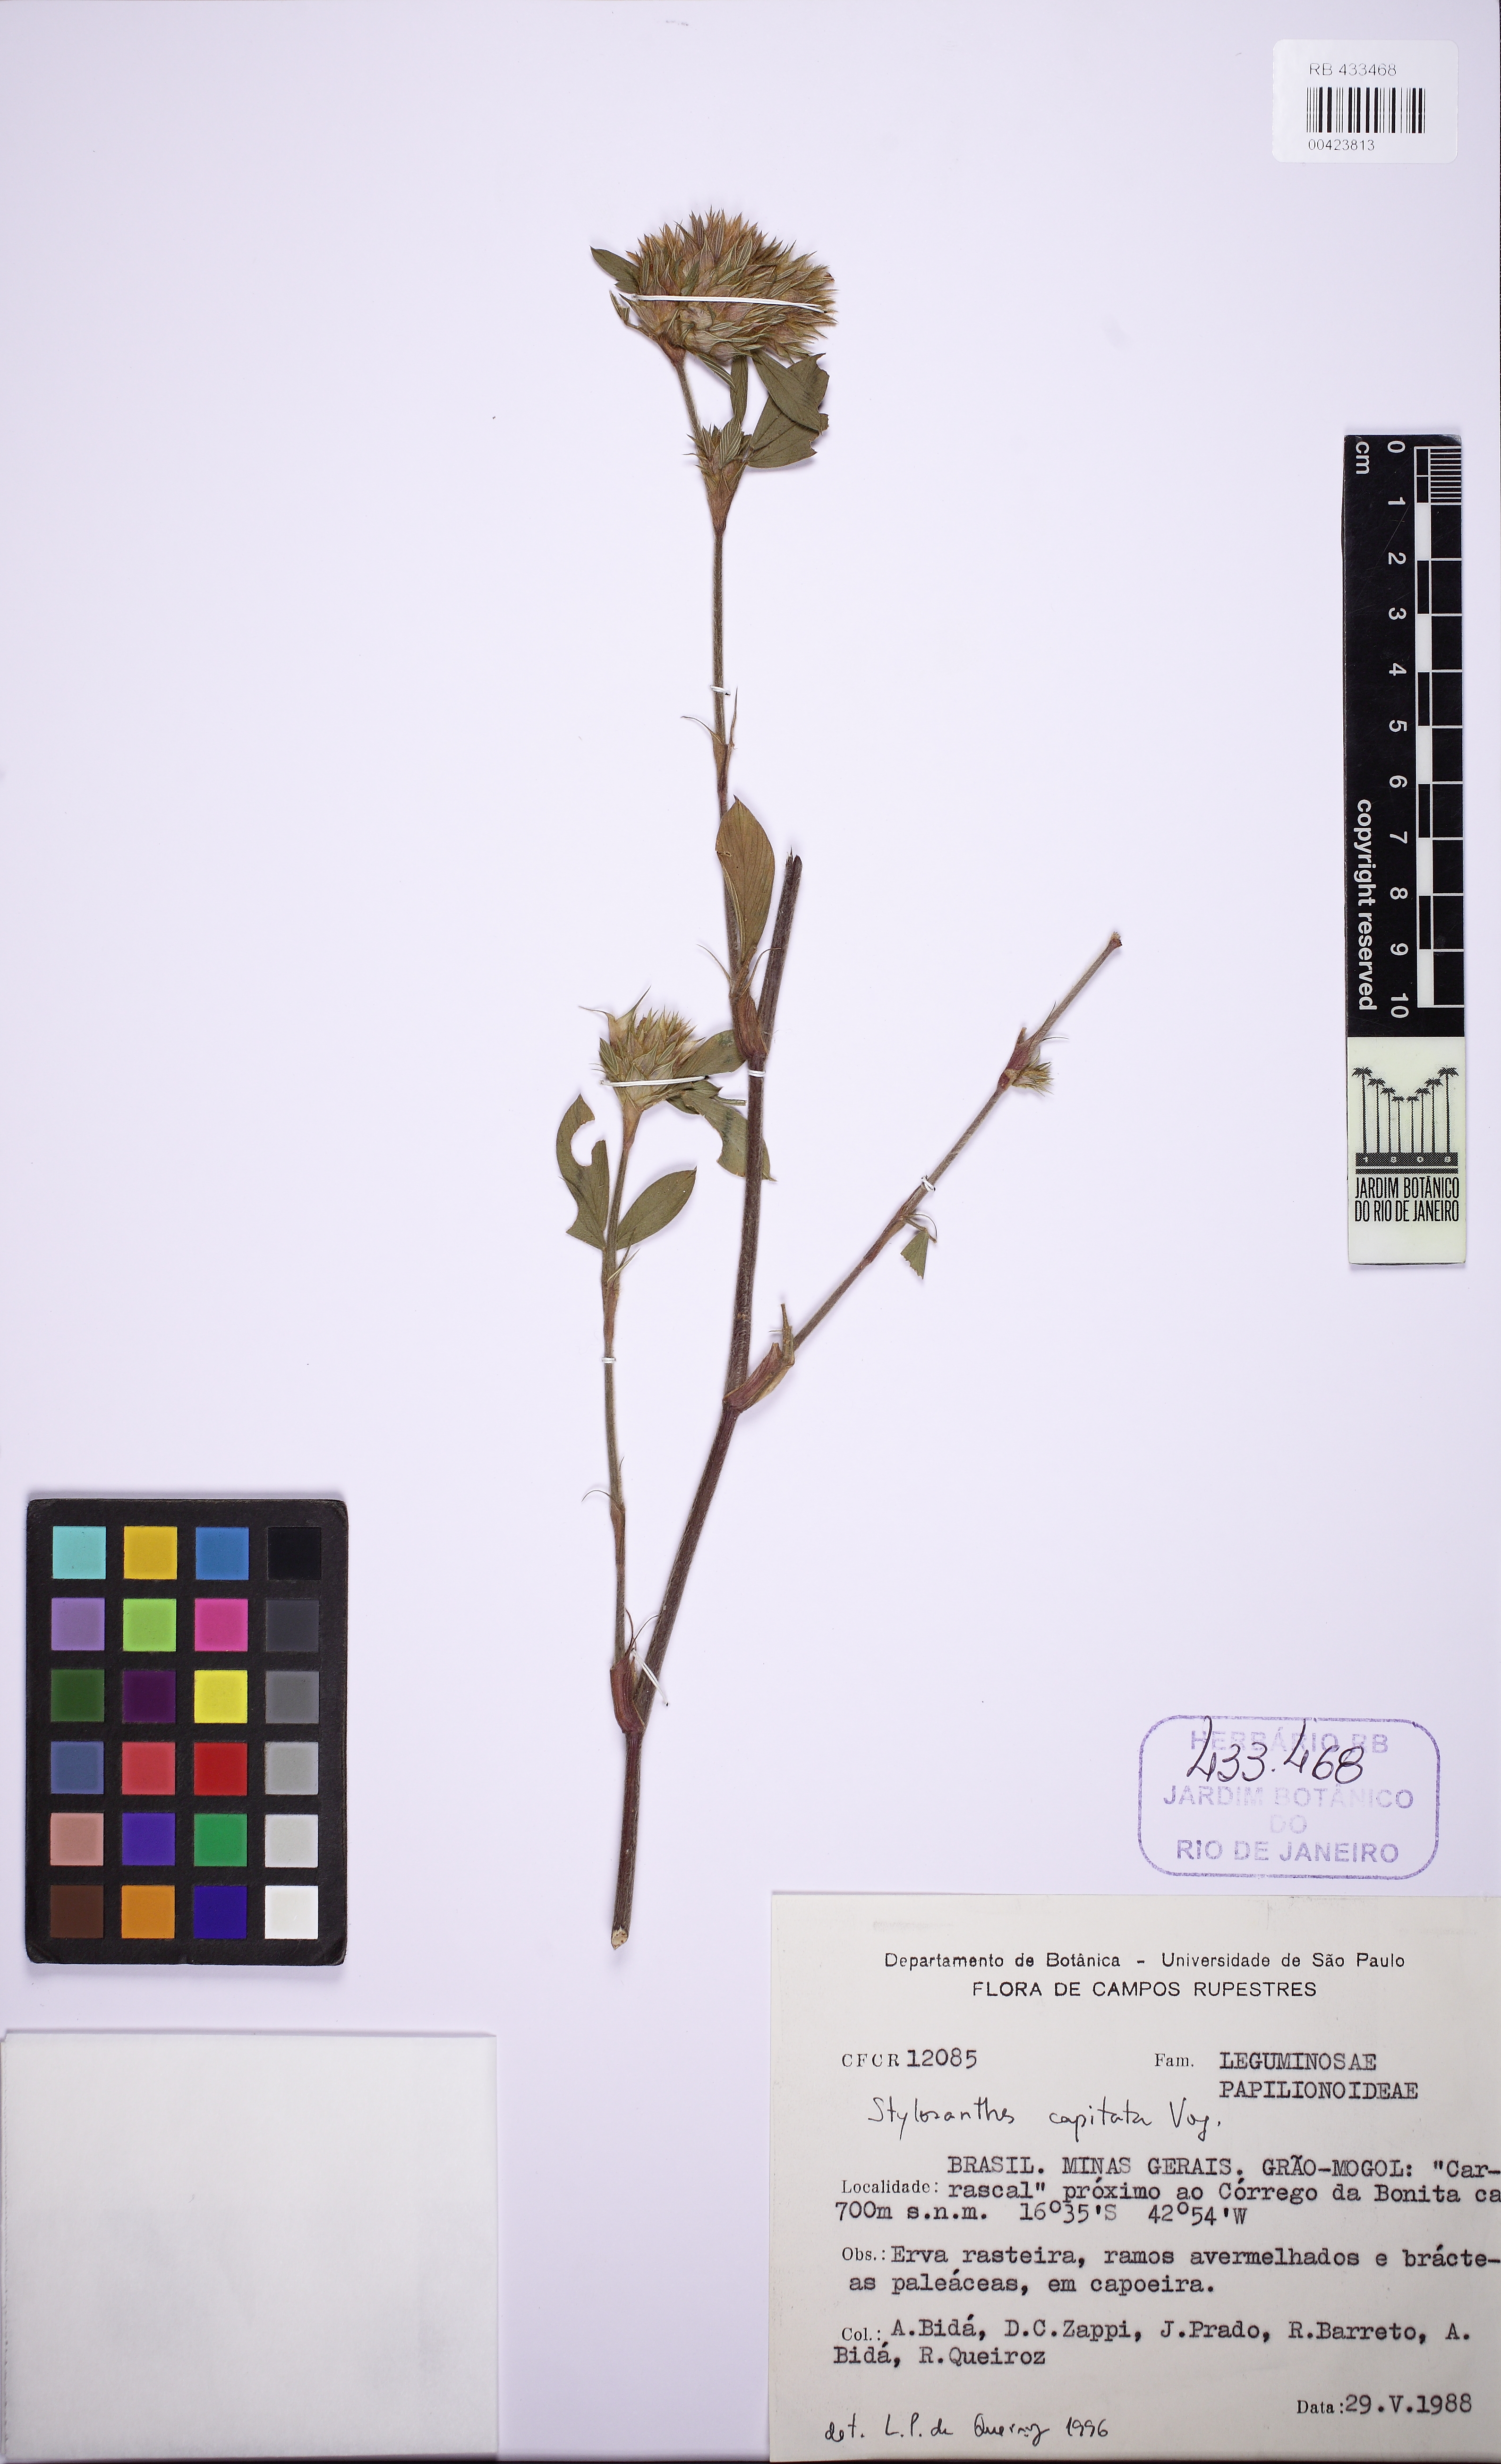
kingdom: Plantae
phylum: Tracheophyta
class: Magnoliopsida
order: Fabales
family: Fabaceae
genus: Stylosanthes
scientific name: Stylosanthes capitata
